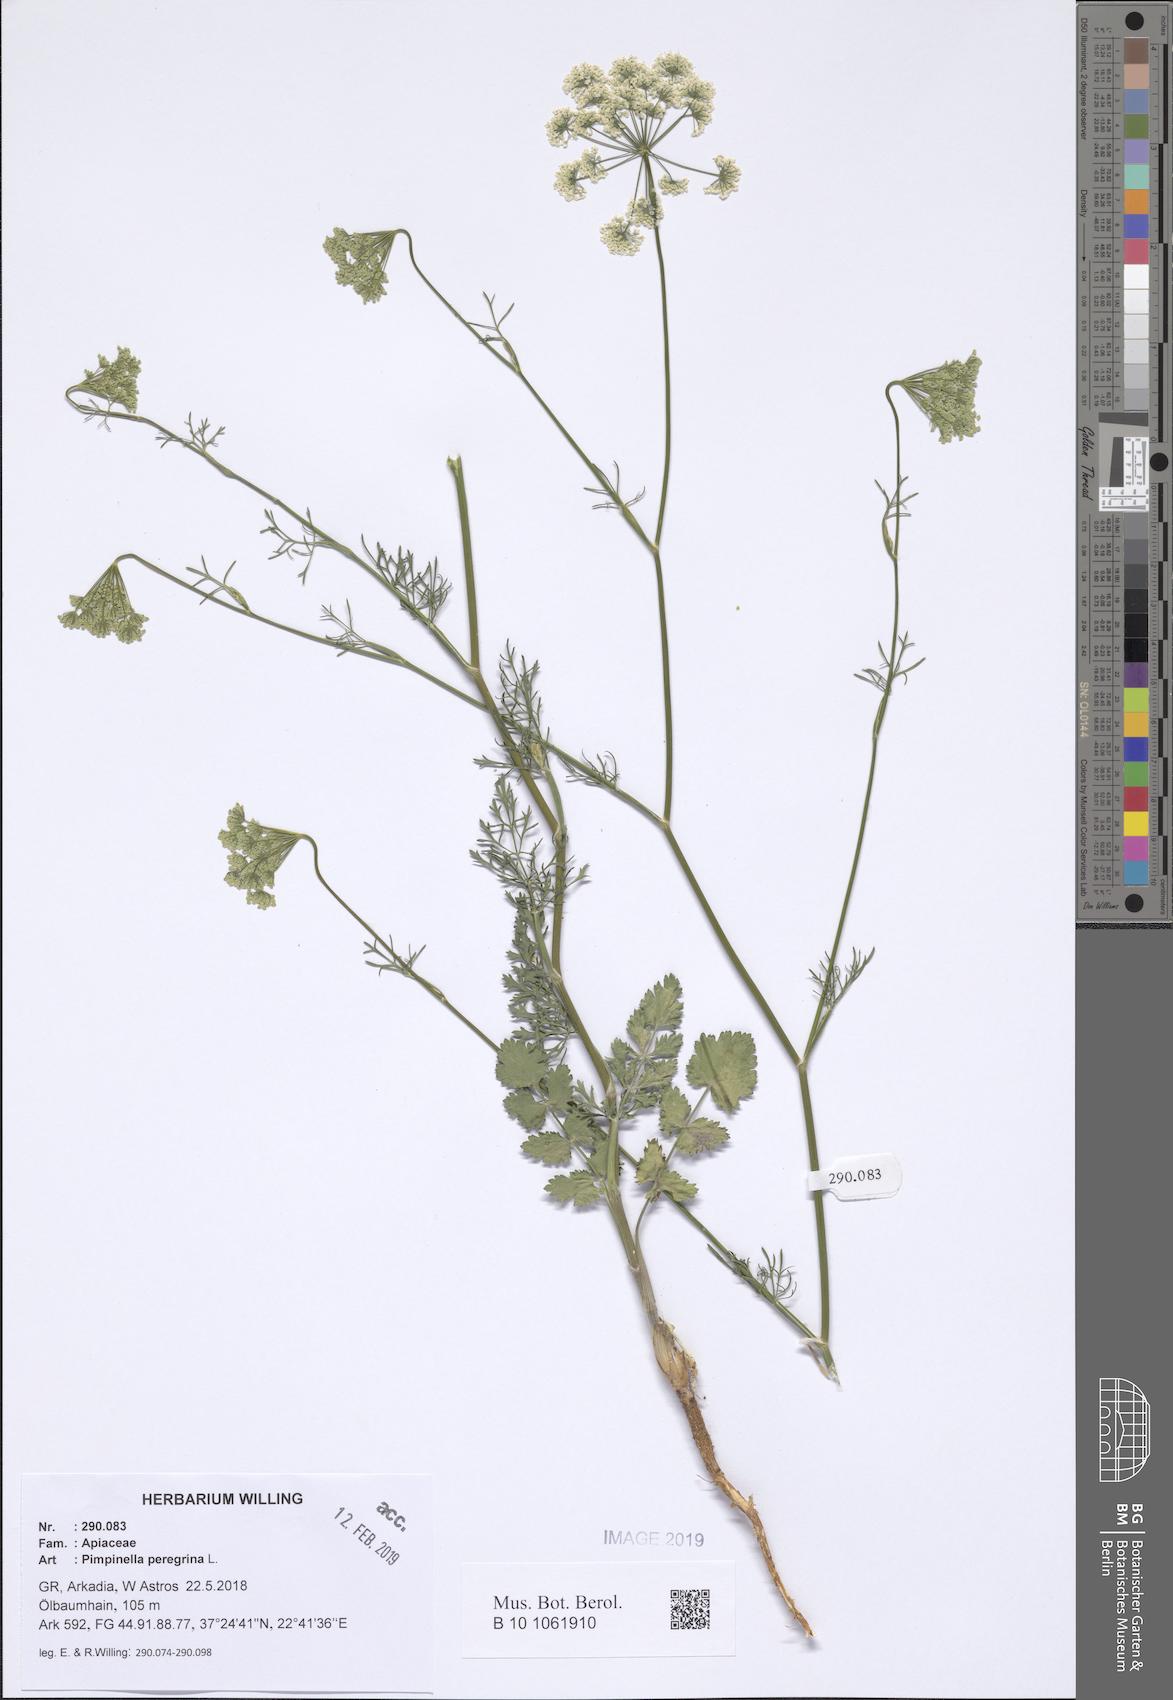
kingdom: Plantae
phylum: Tracheophyta
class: Magnoliopsida
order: Apiales
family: Apiaceae
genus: Pimpinella
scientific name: Pimpinella peregrina
